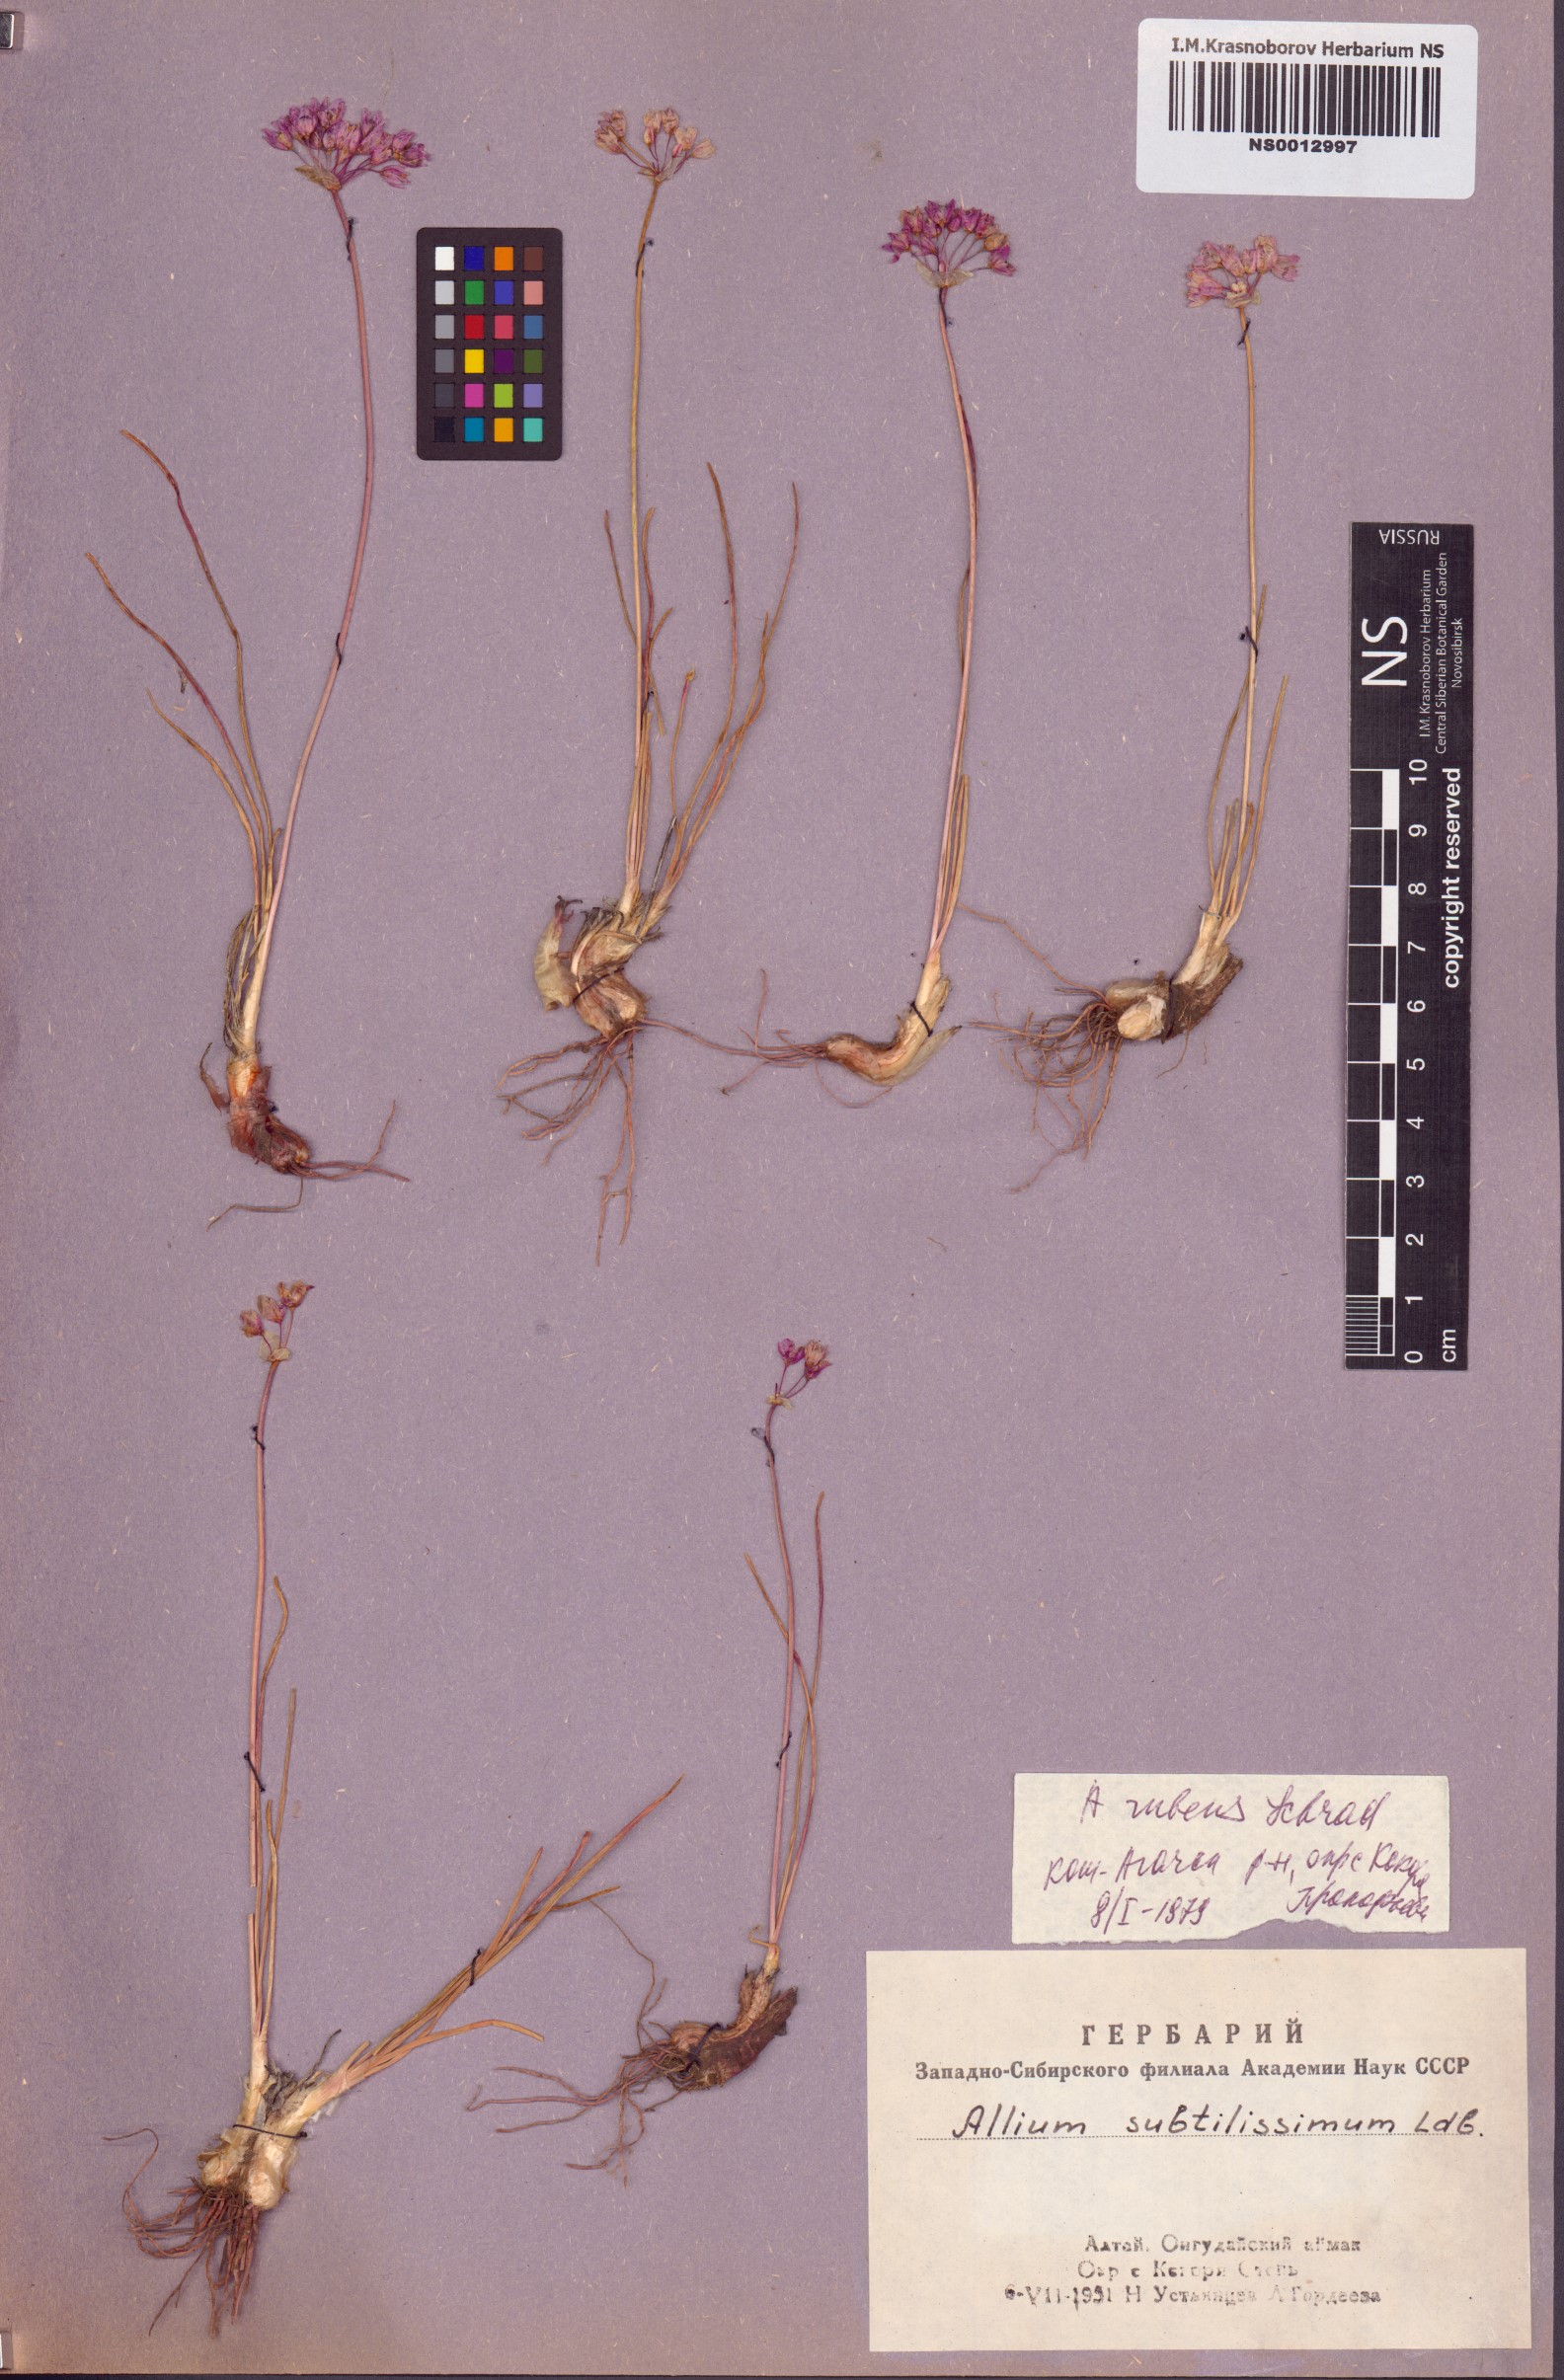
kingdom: Plantae
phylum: Tracheophyta
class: Liliopsida
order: Asparagales
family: Amaryllidaceae
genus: Allium
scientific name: Allium rubens
